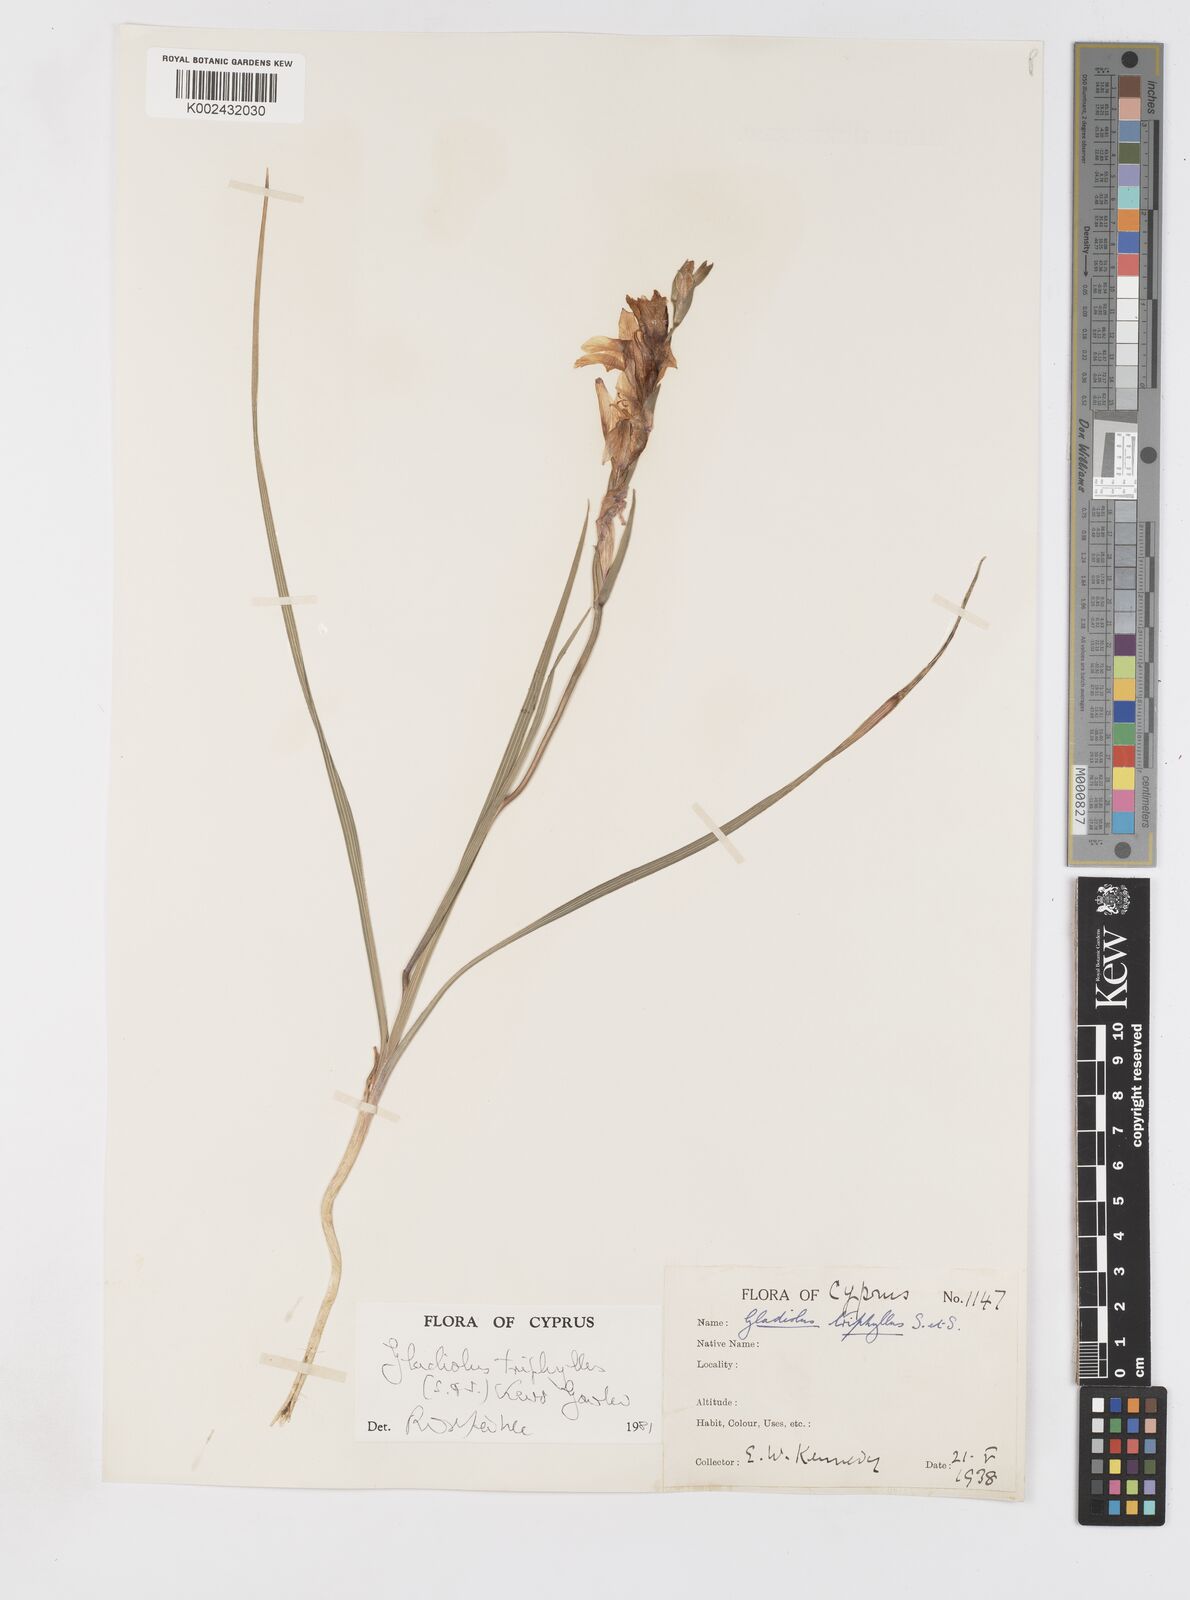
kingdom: Plantae
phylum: Tracheophyta
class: Liliopsida
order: Asparagales
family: Iridaceae
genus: Gladiolus
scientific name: Gladiolus triphyllus
